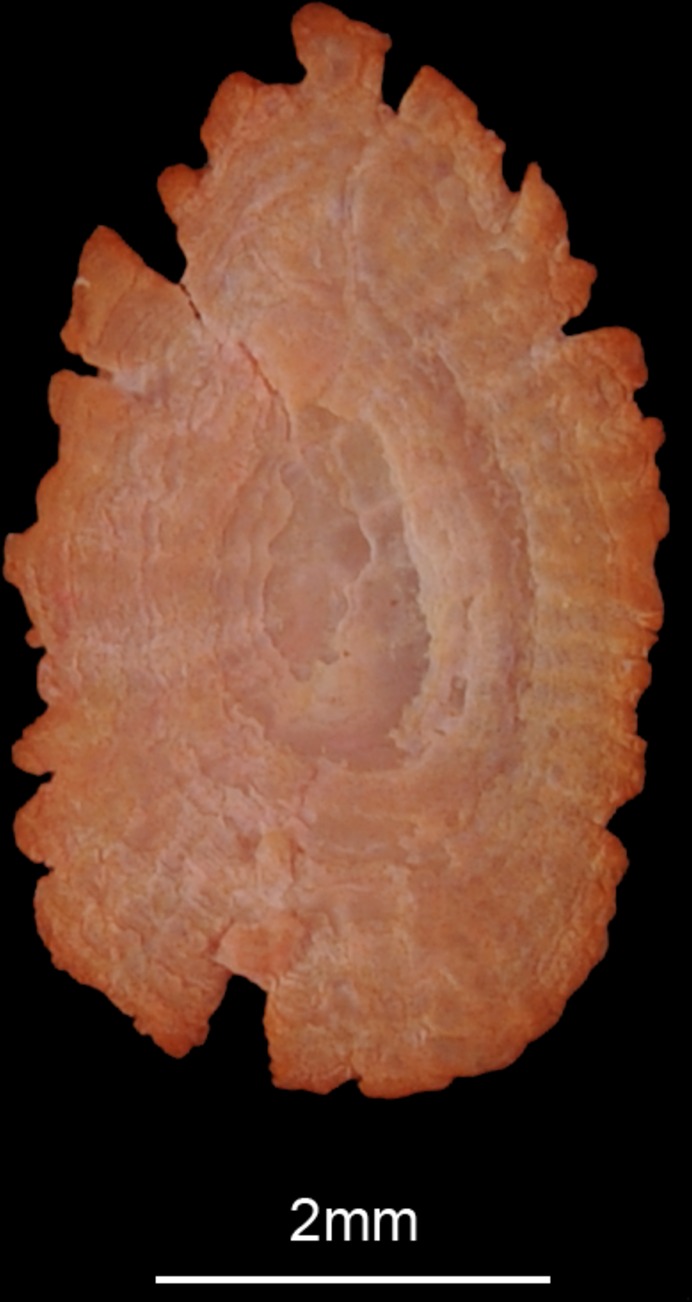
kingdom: Animalia
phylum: Chordata
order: Perciformes
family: Scaridae
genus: Chlorurus
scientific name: Chlorurus sordidus
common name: Bullethead parrotfish
